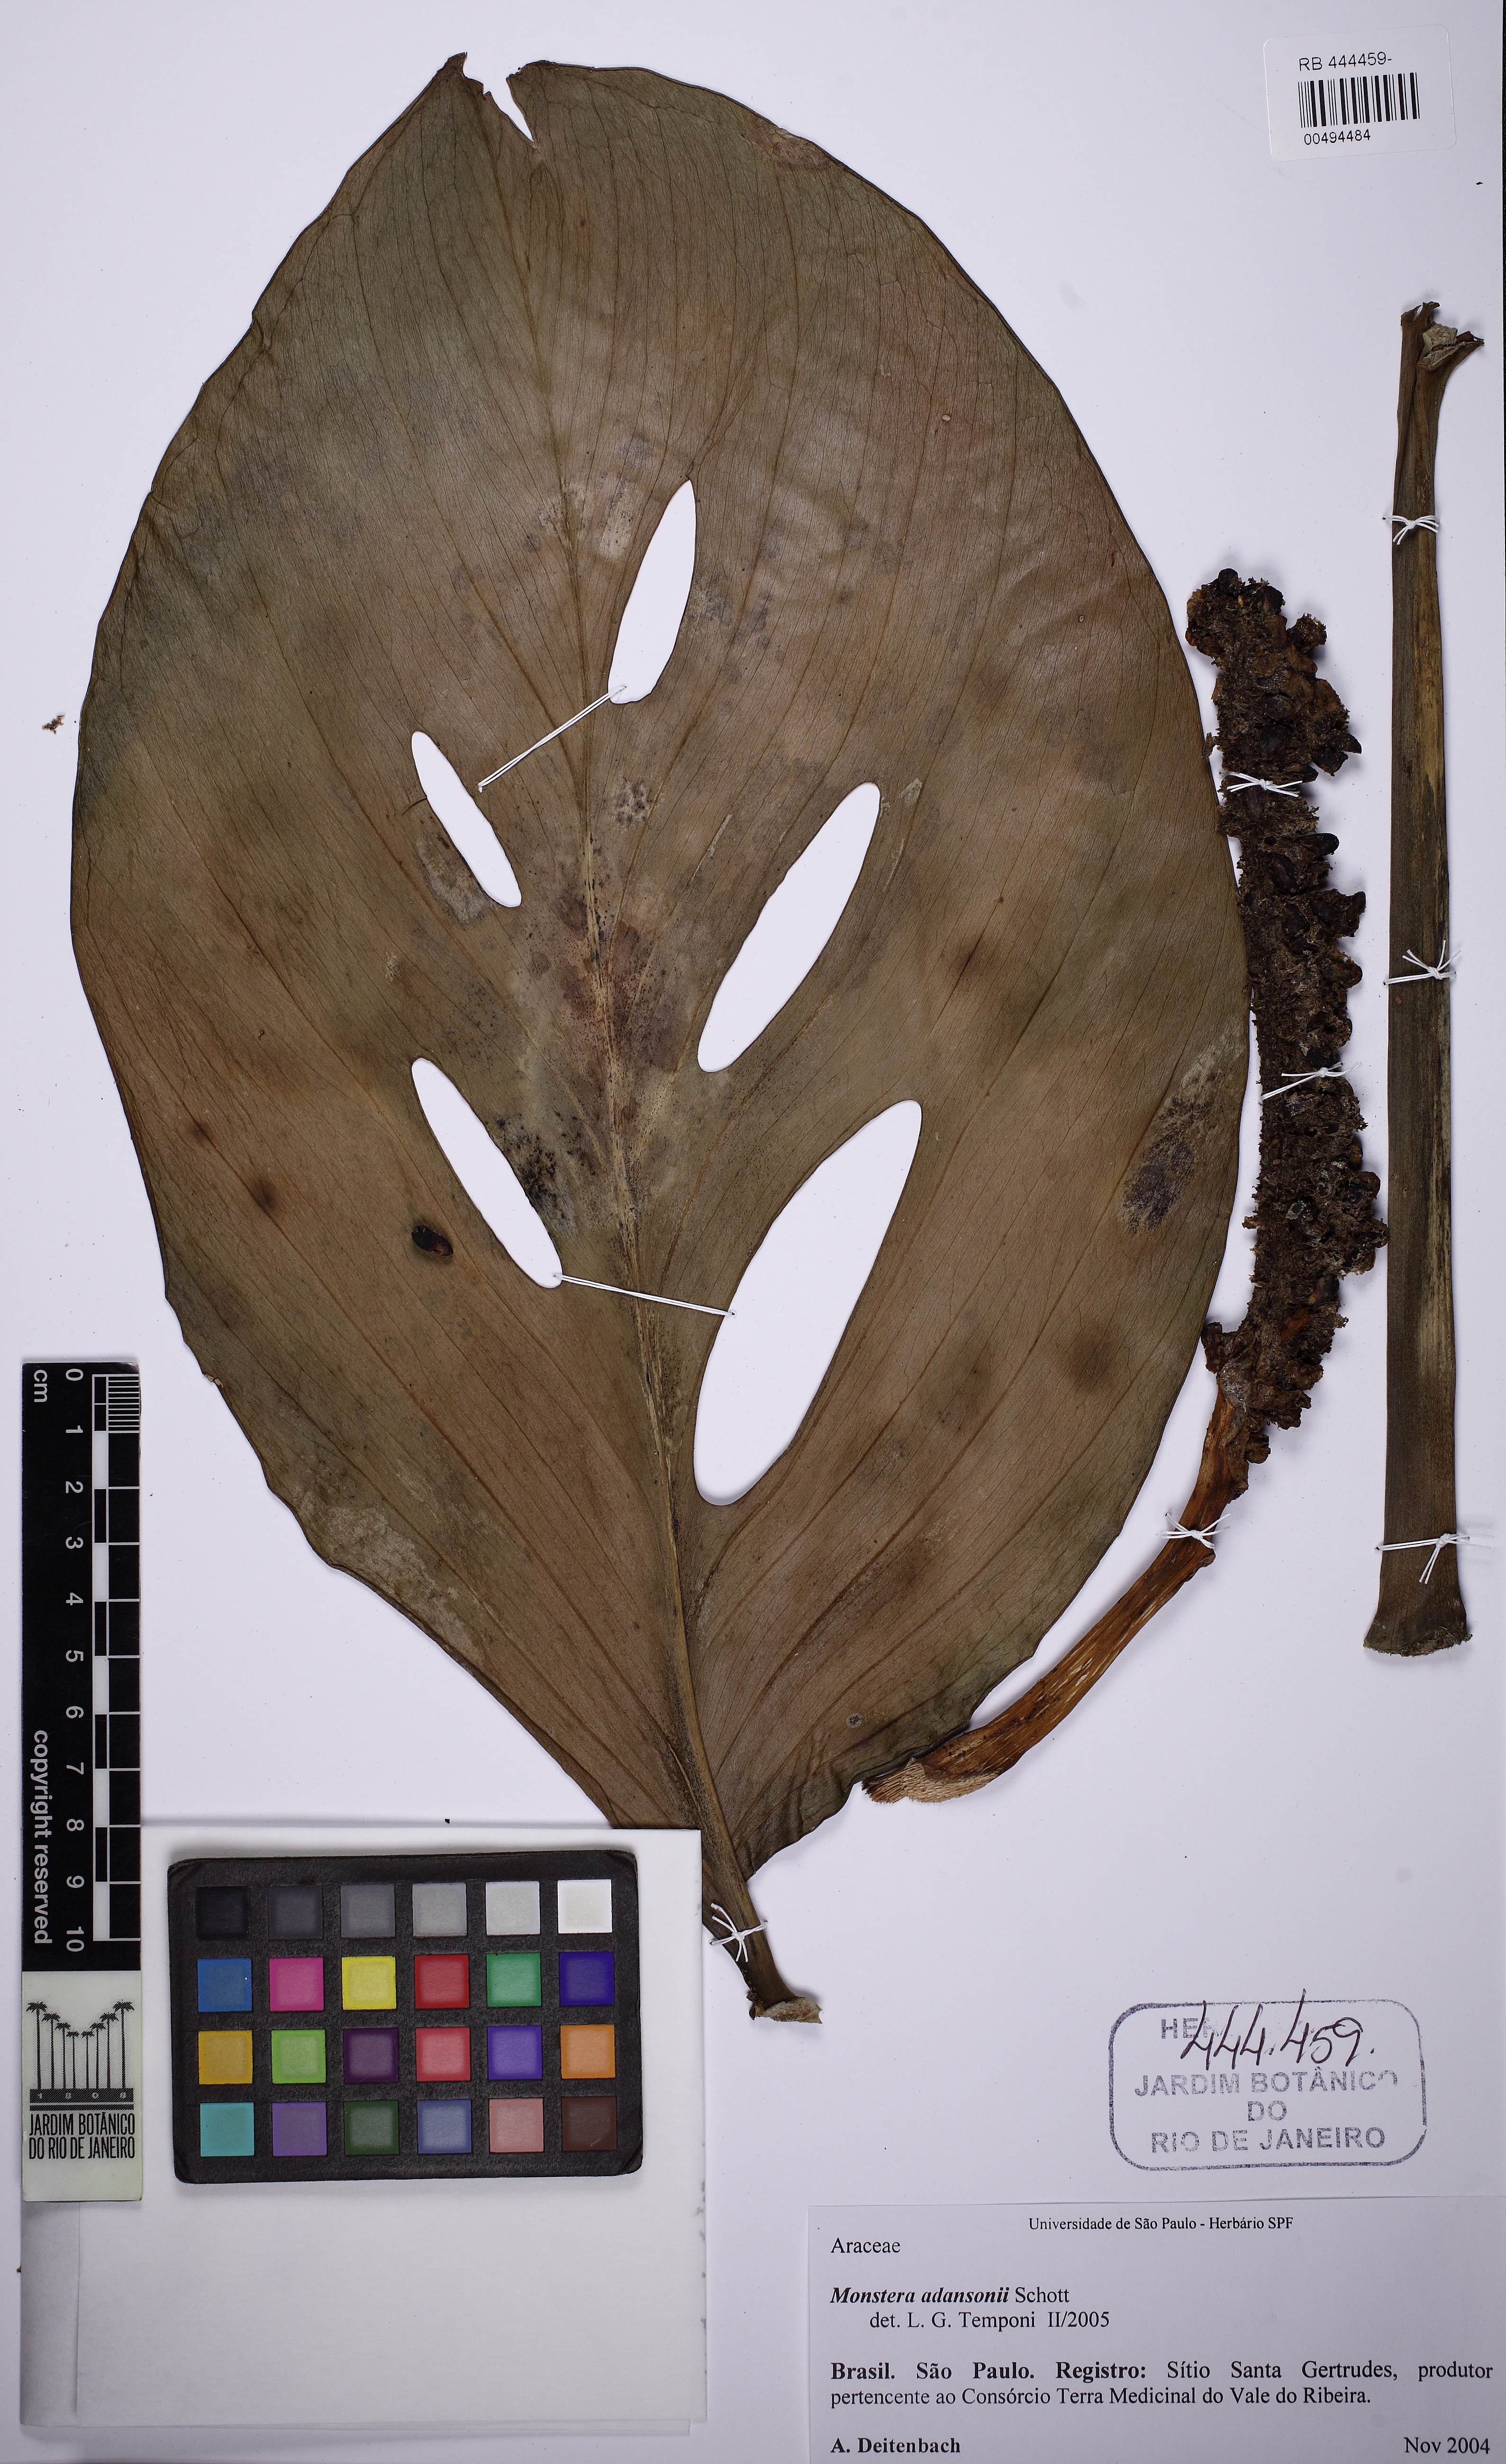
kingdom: Plantae
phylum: Tracheophyta
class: Liliopsida
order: Alismatales
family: Araceae
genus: Monstera
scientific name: Monstera adansonii
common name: Tarovine
